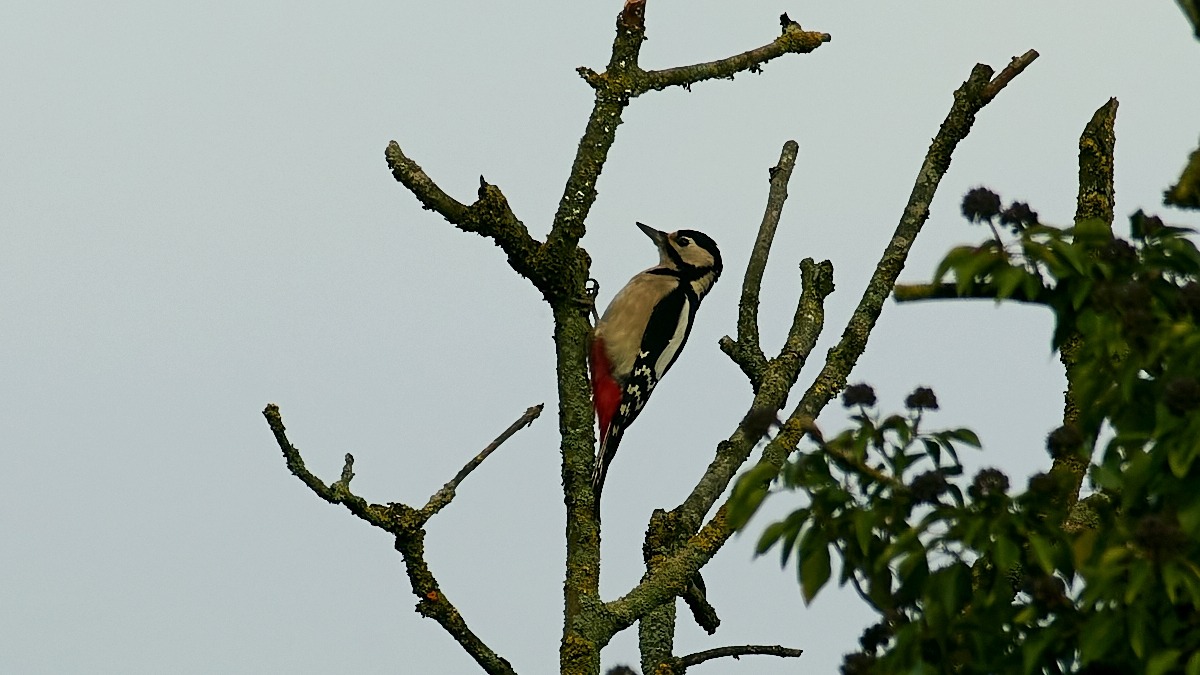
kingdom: Animalia
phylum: Chordata
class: Aves
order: Piciformes
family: Picidae
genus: Dendrocopos
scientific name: Dendrocopos major
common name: Stor flagspætte
